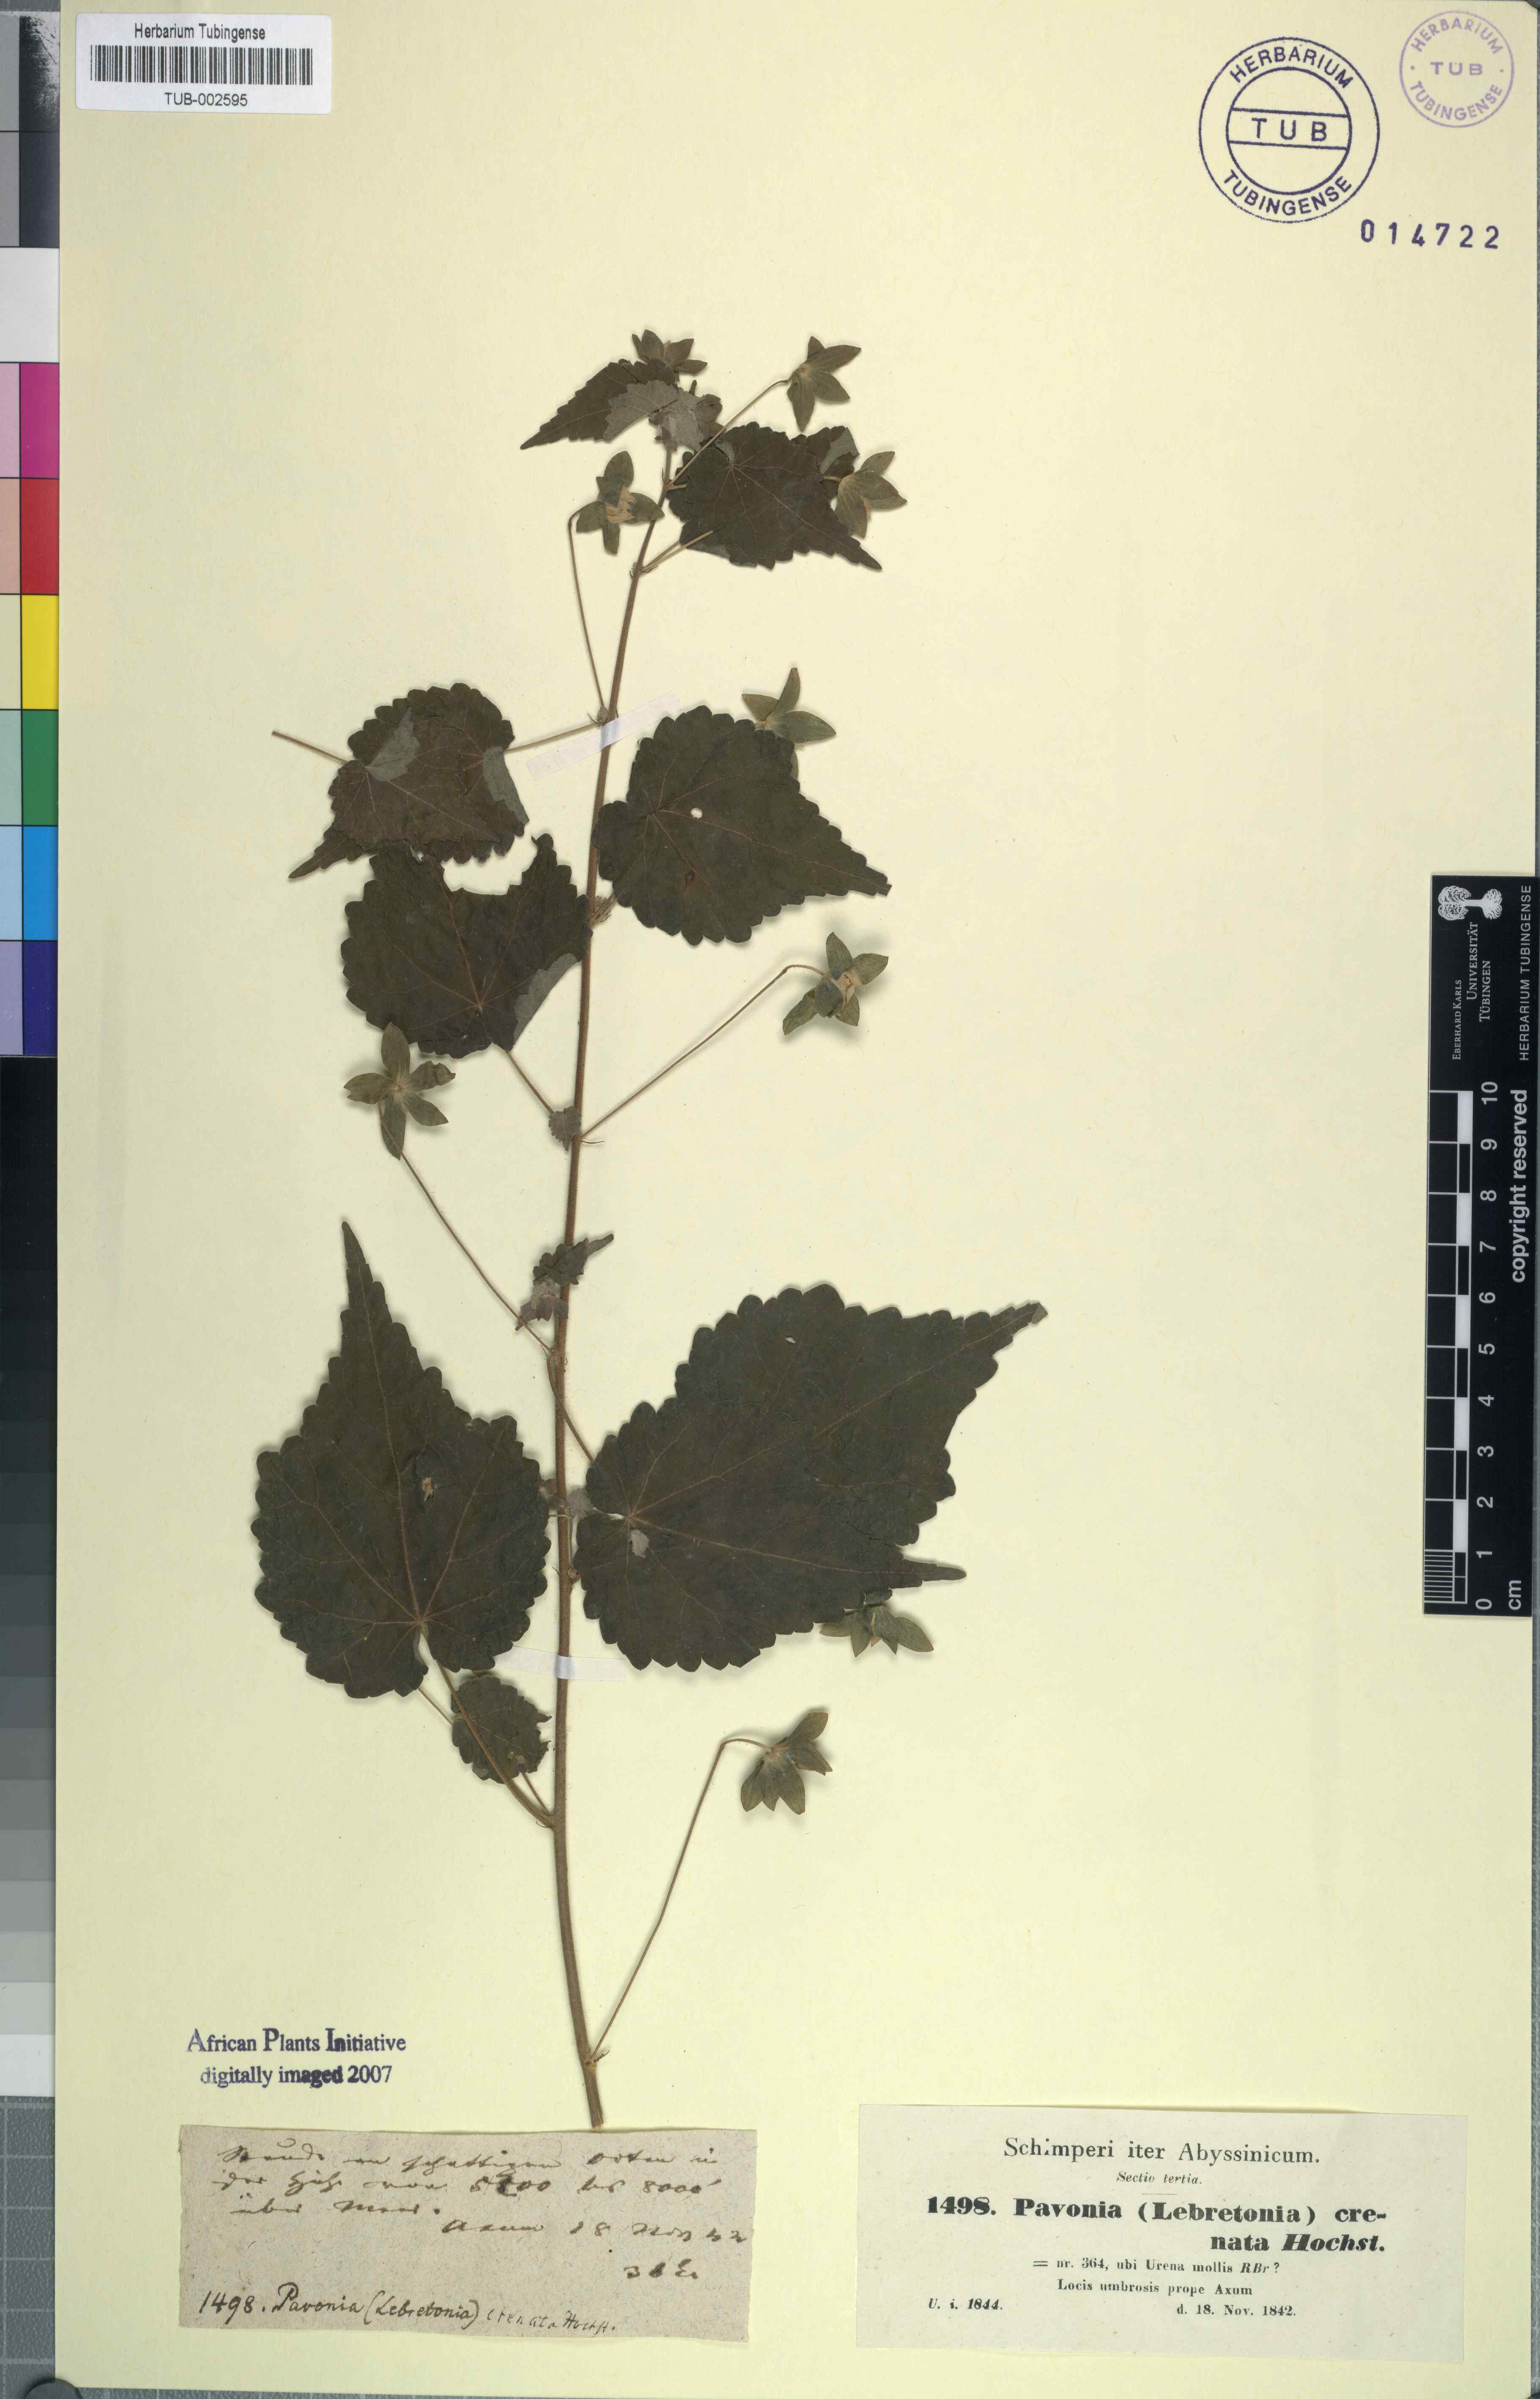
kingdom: Plantae
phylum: Tracheophyta
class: Magnoliopsida
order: Malvales
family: Malvaceae
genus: Pavonia
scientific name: Pavonia burchellii
